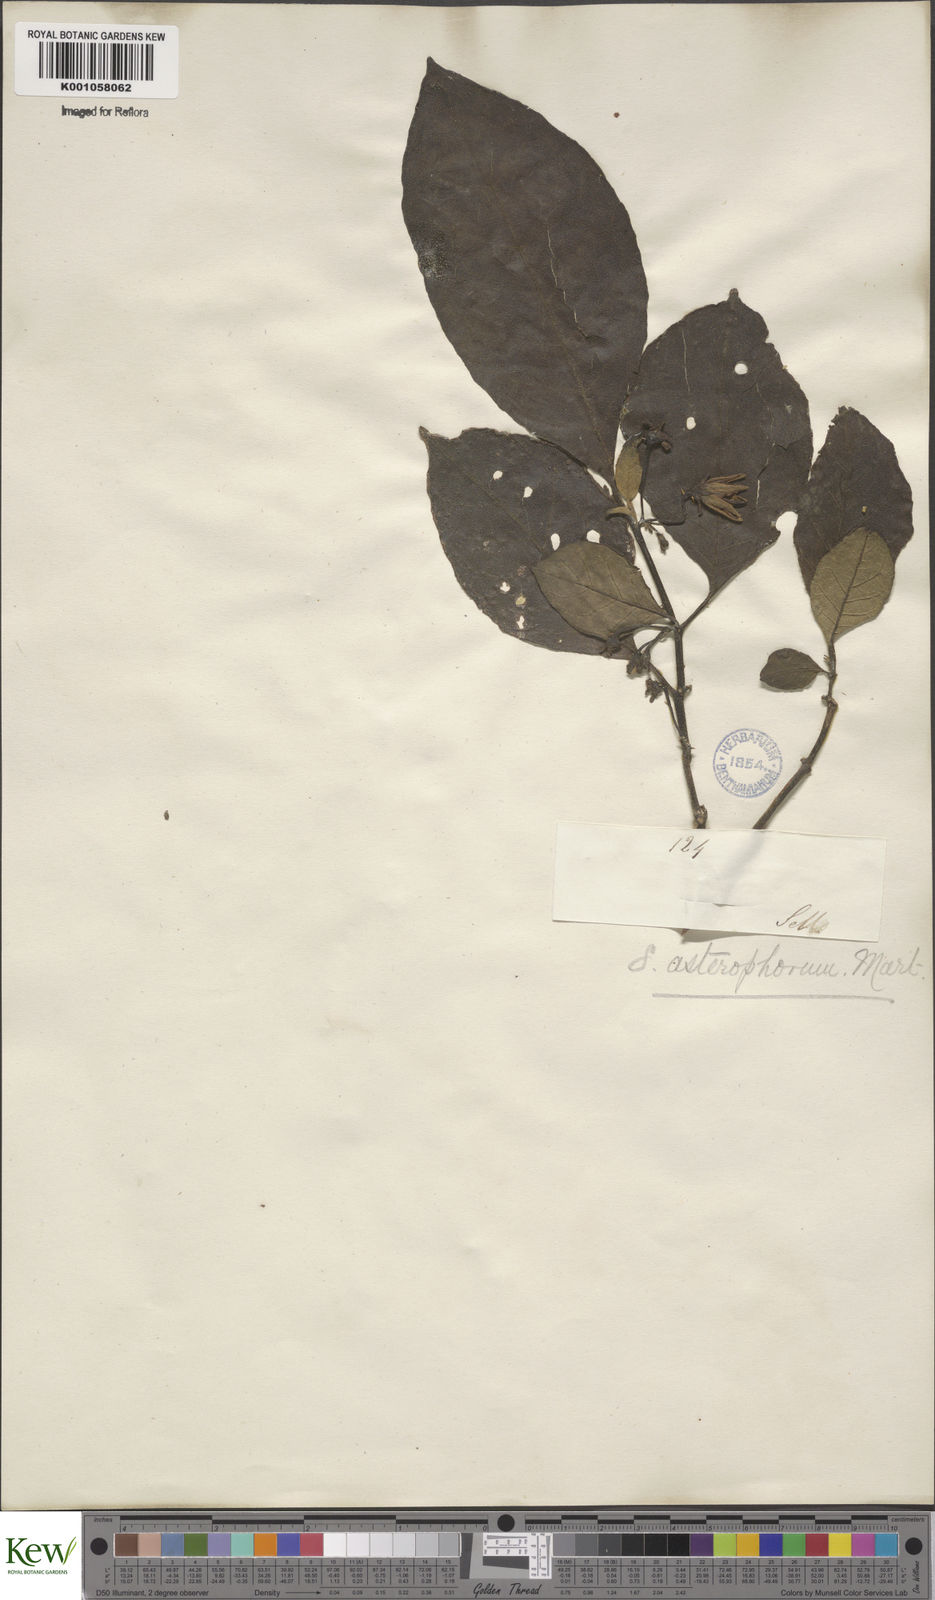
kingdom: Plantae
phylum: Tracheophyta
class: Magnoliopsida
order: Solanales
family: Solanaceae
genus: Solanum
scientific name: Solanum asterophorum
